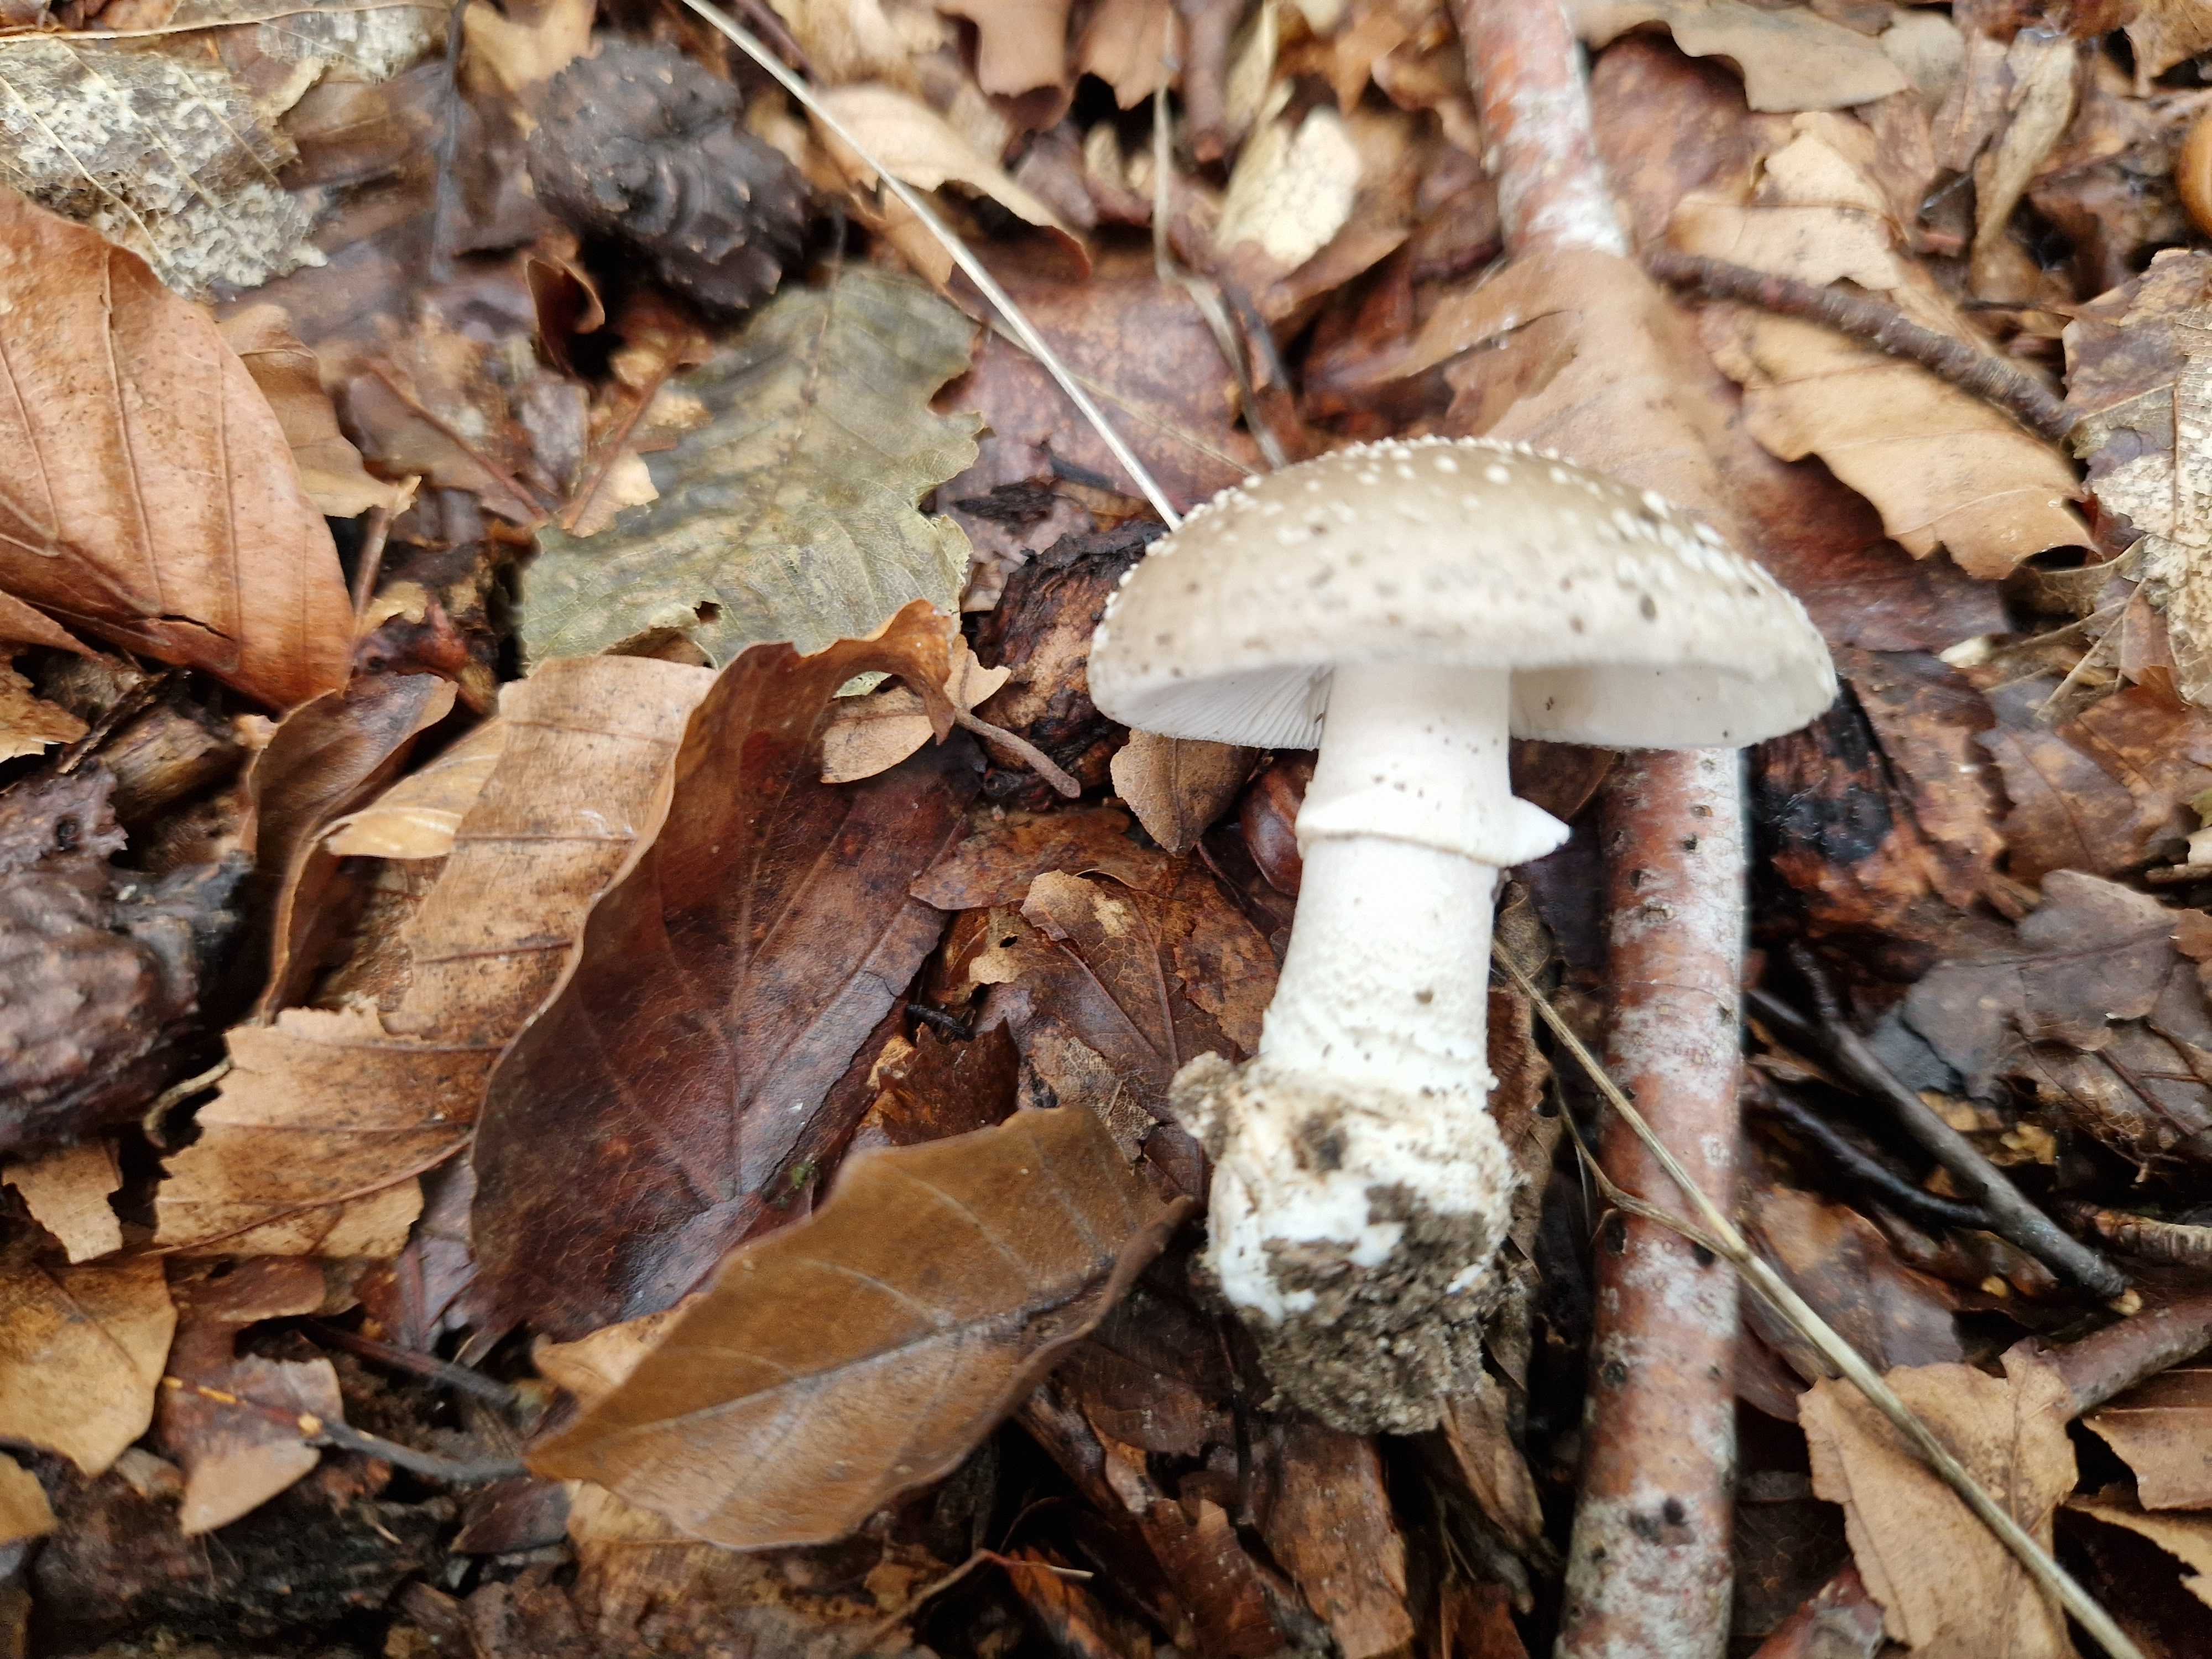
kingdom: Fungi
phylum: Basidiomycota
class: Agaricomycetes
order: Agaricales
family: Amanitaceae
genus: Amanita
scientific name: Amanita
